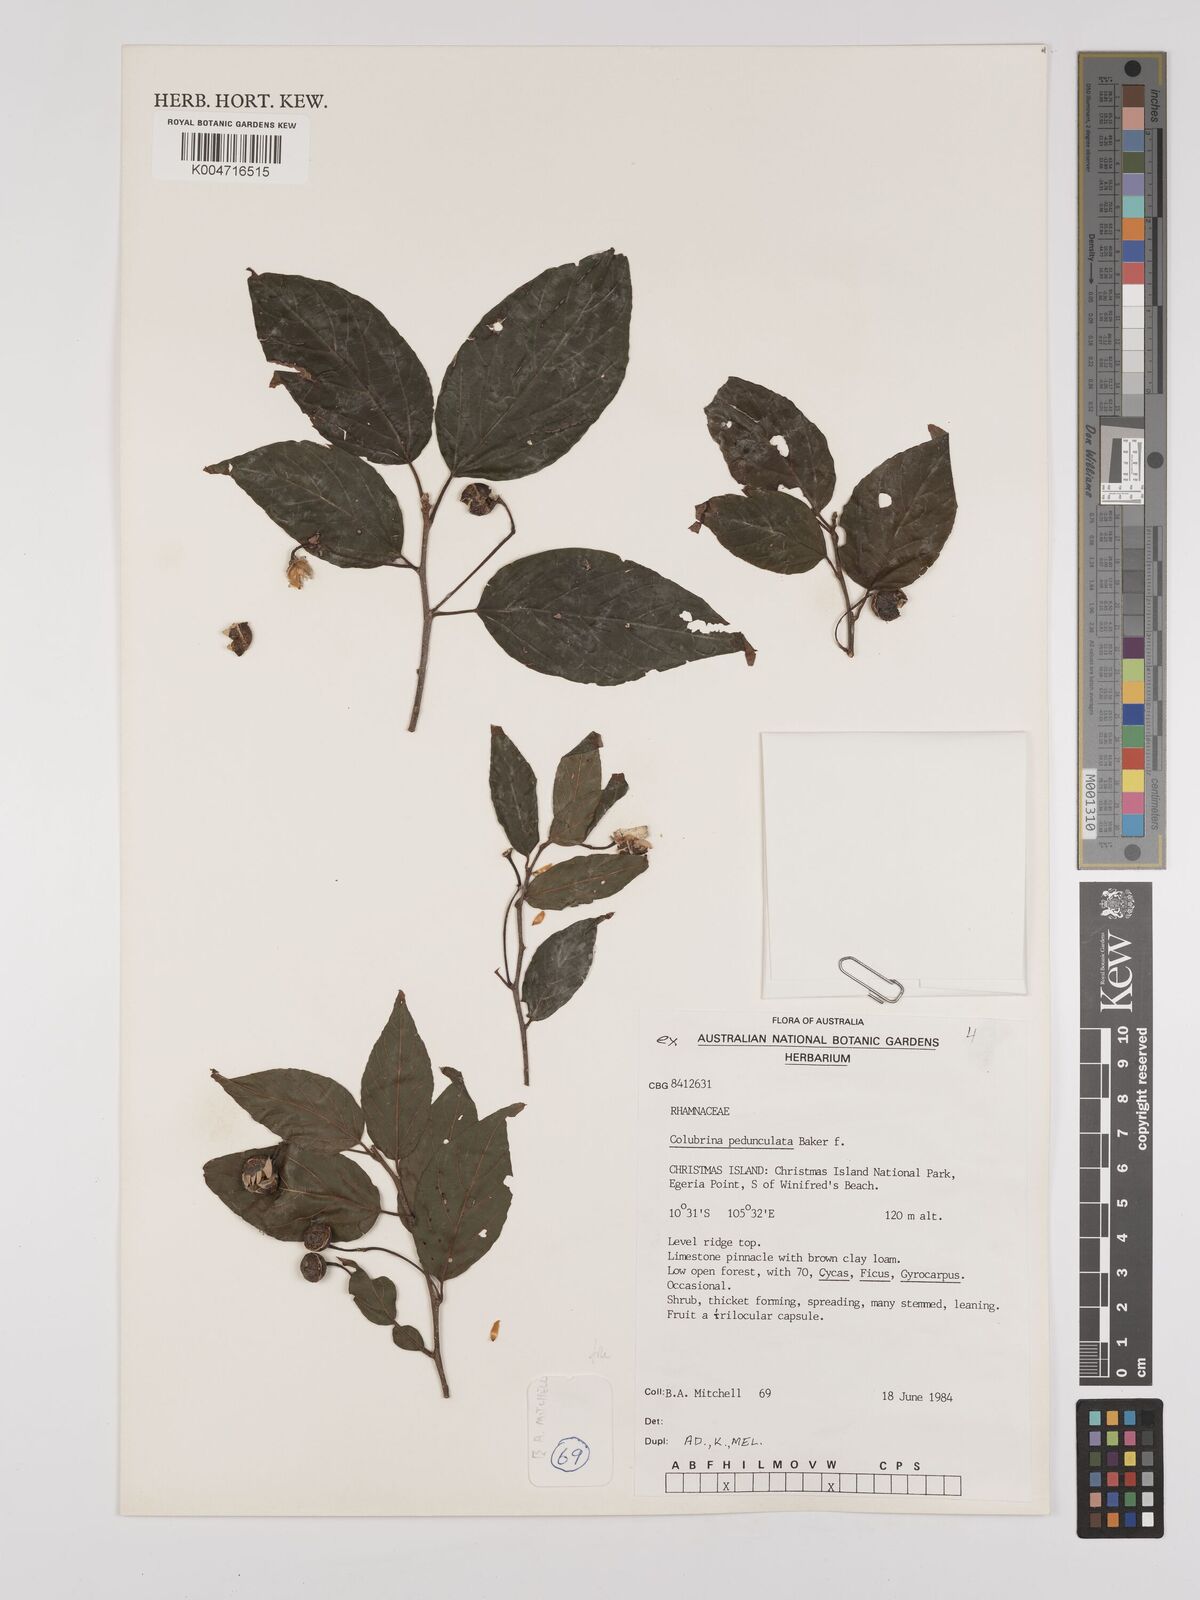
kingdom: Plantae
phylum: Tracheophyta
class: Magnoliopsida
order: Rosales
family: Rhamnaceae
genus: Colubrina
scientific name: Colubrina pedunculata
